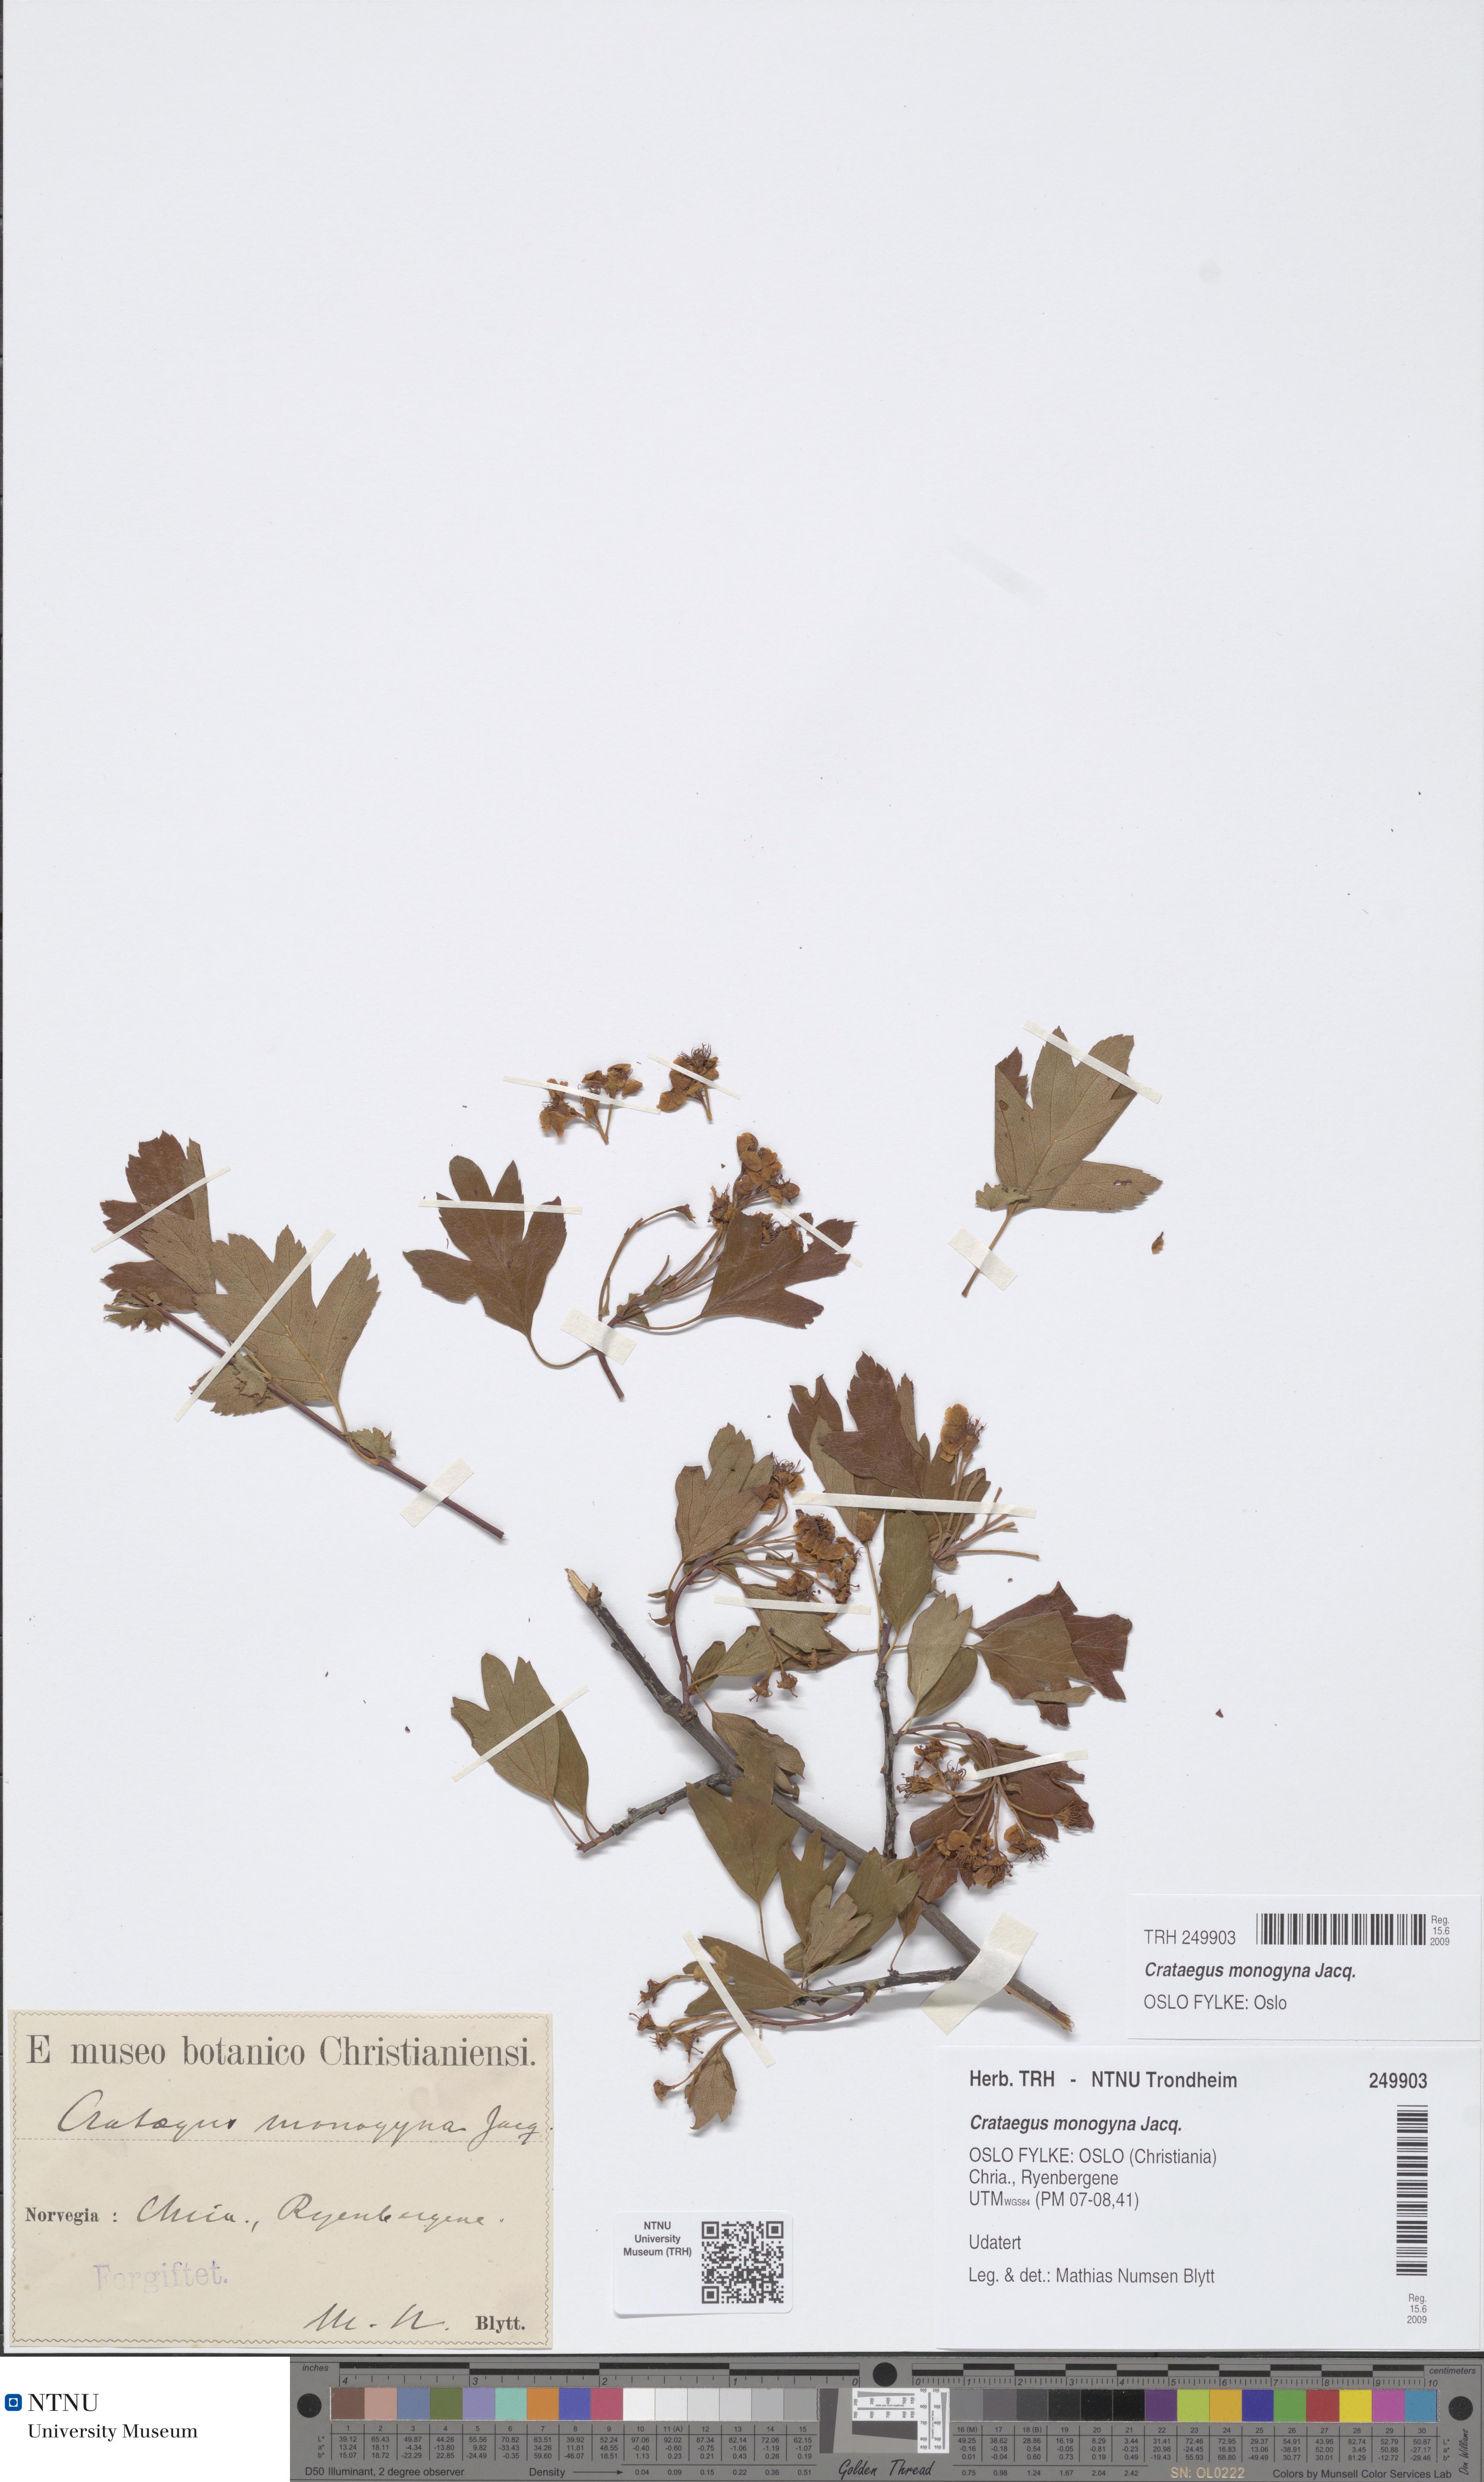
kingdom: Plantae
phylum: Tracheophyta
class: Magnoliopsida
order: Rosales
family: Rosaceae
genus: Crataegus
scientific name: Crataegus monogyna
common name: Hawthorn
